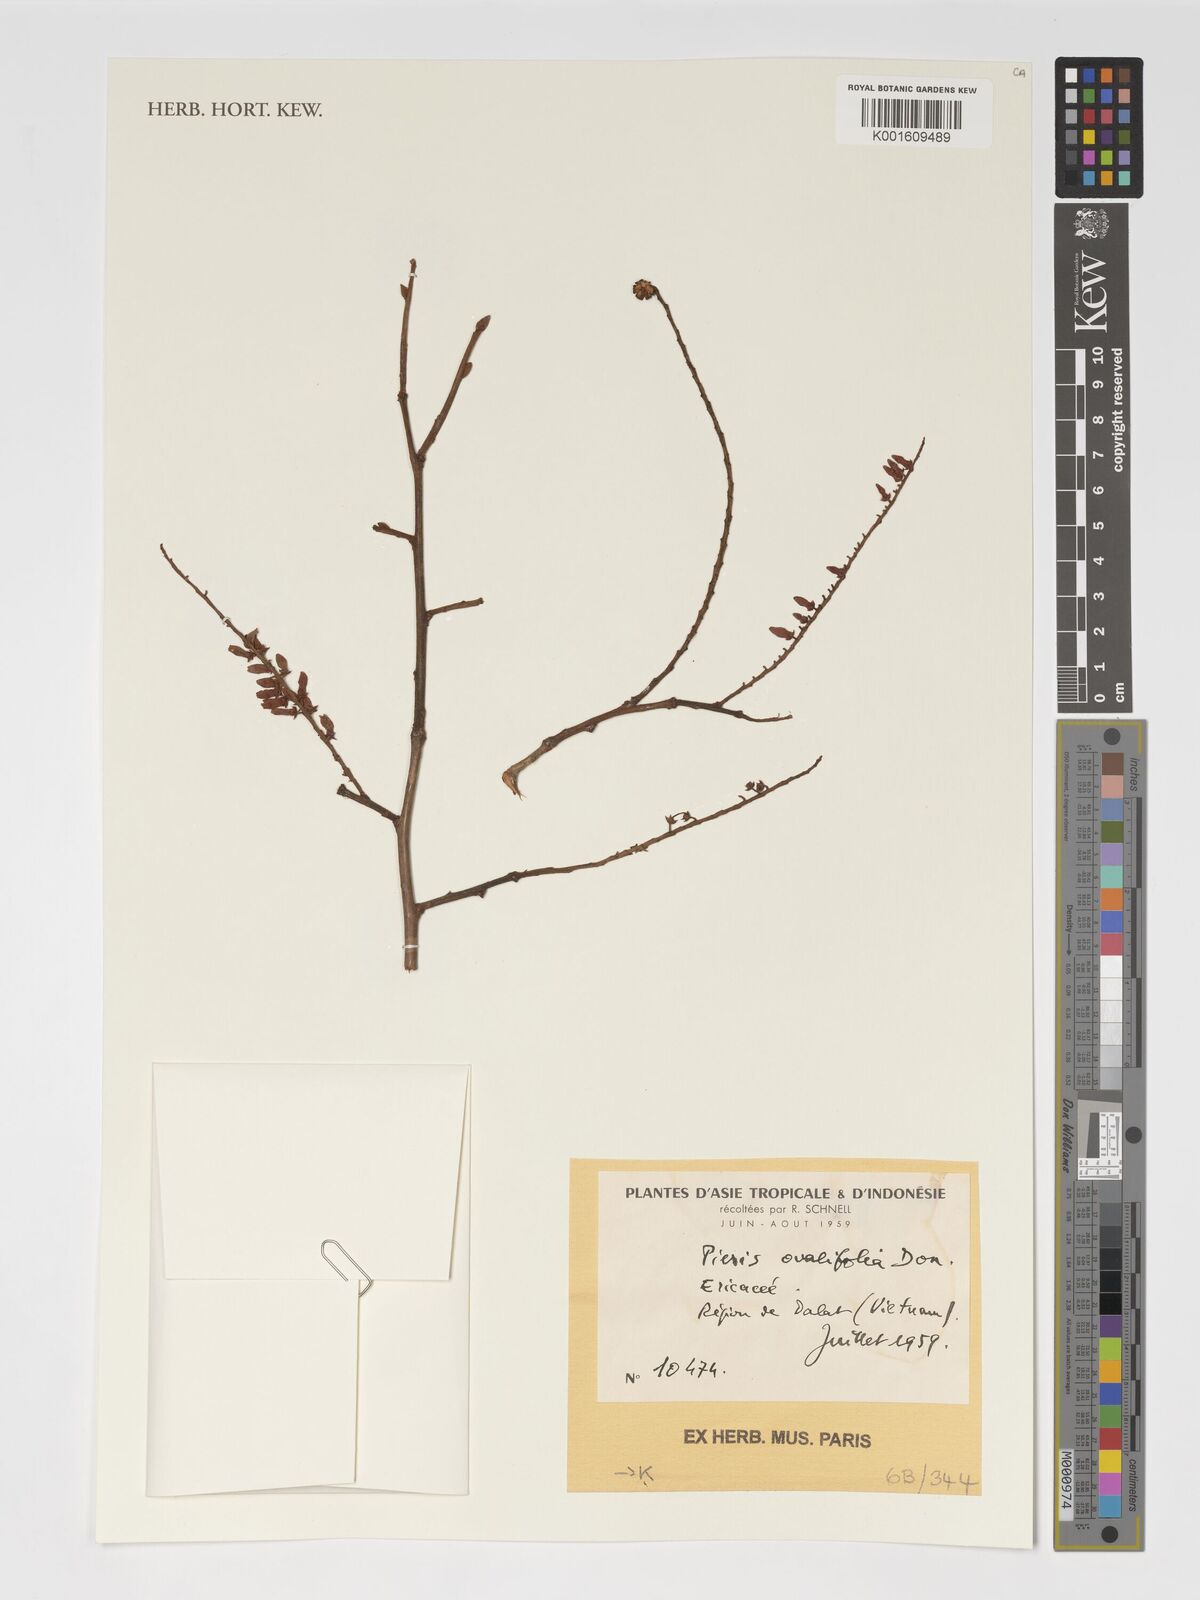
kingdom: Plantae
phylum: Tracheophyta
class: Magnoliopsida
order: Ericales
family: Ericaceae
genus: Lyonia
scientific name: Lyonia ovalifolia
